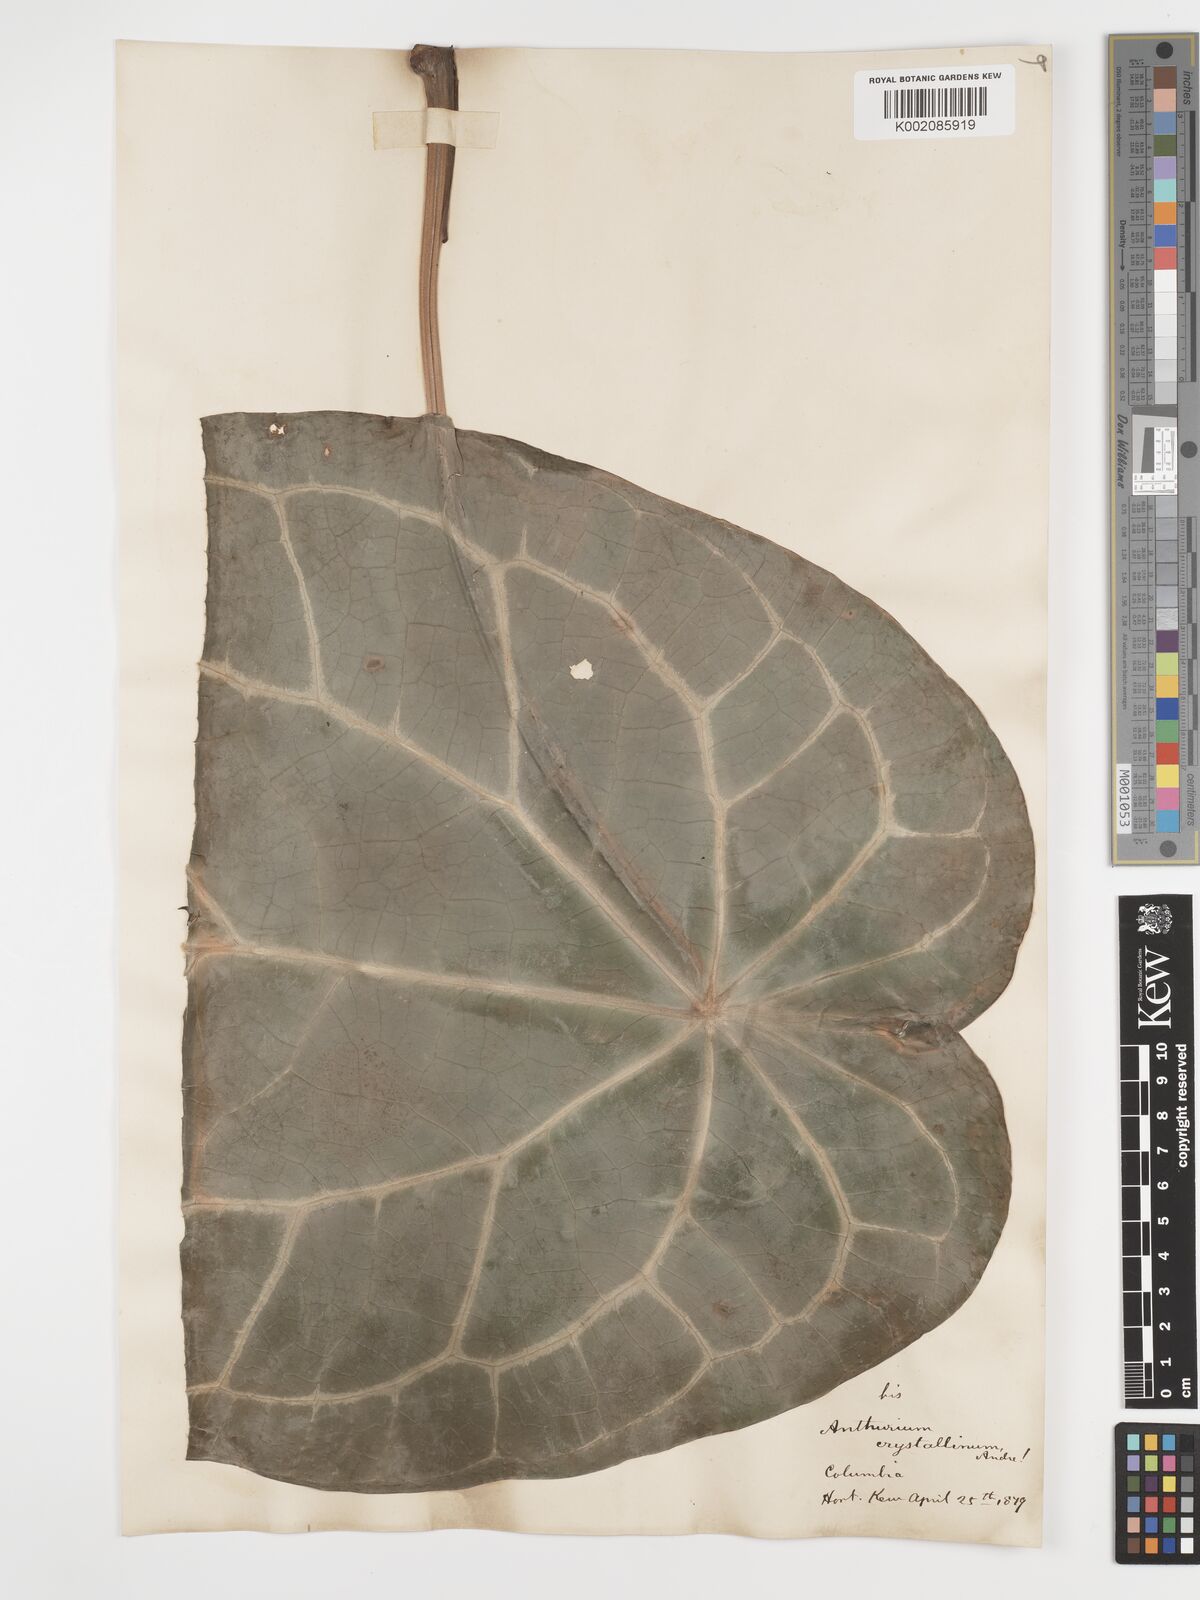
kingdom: Plantae
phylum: Tracheophyta
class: Liliopsida
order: Alismatales
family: Araceae
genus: Anthurium
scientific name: Anthurium crystallinum
